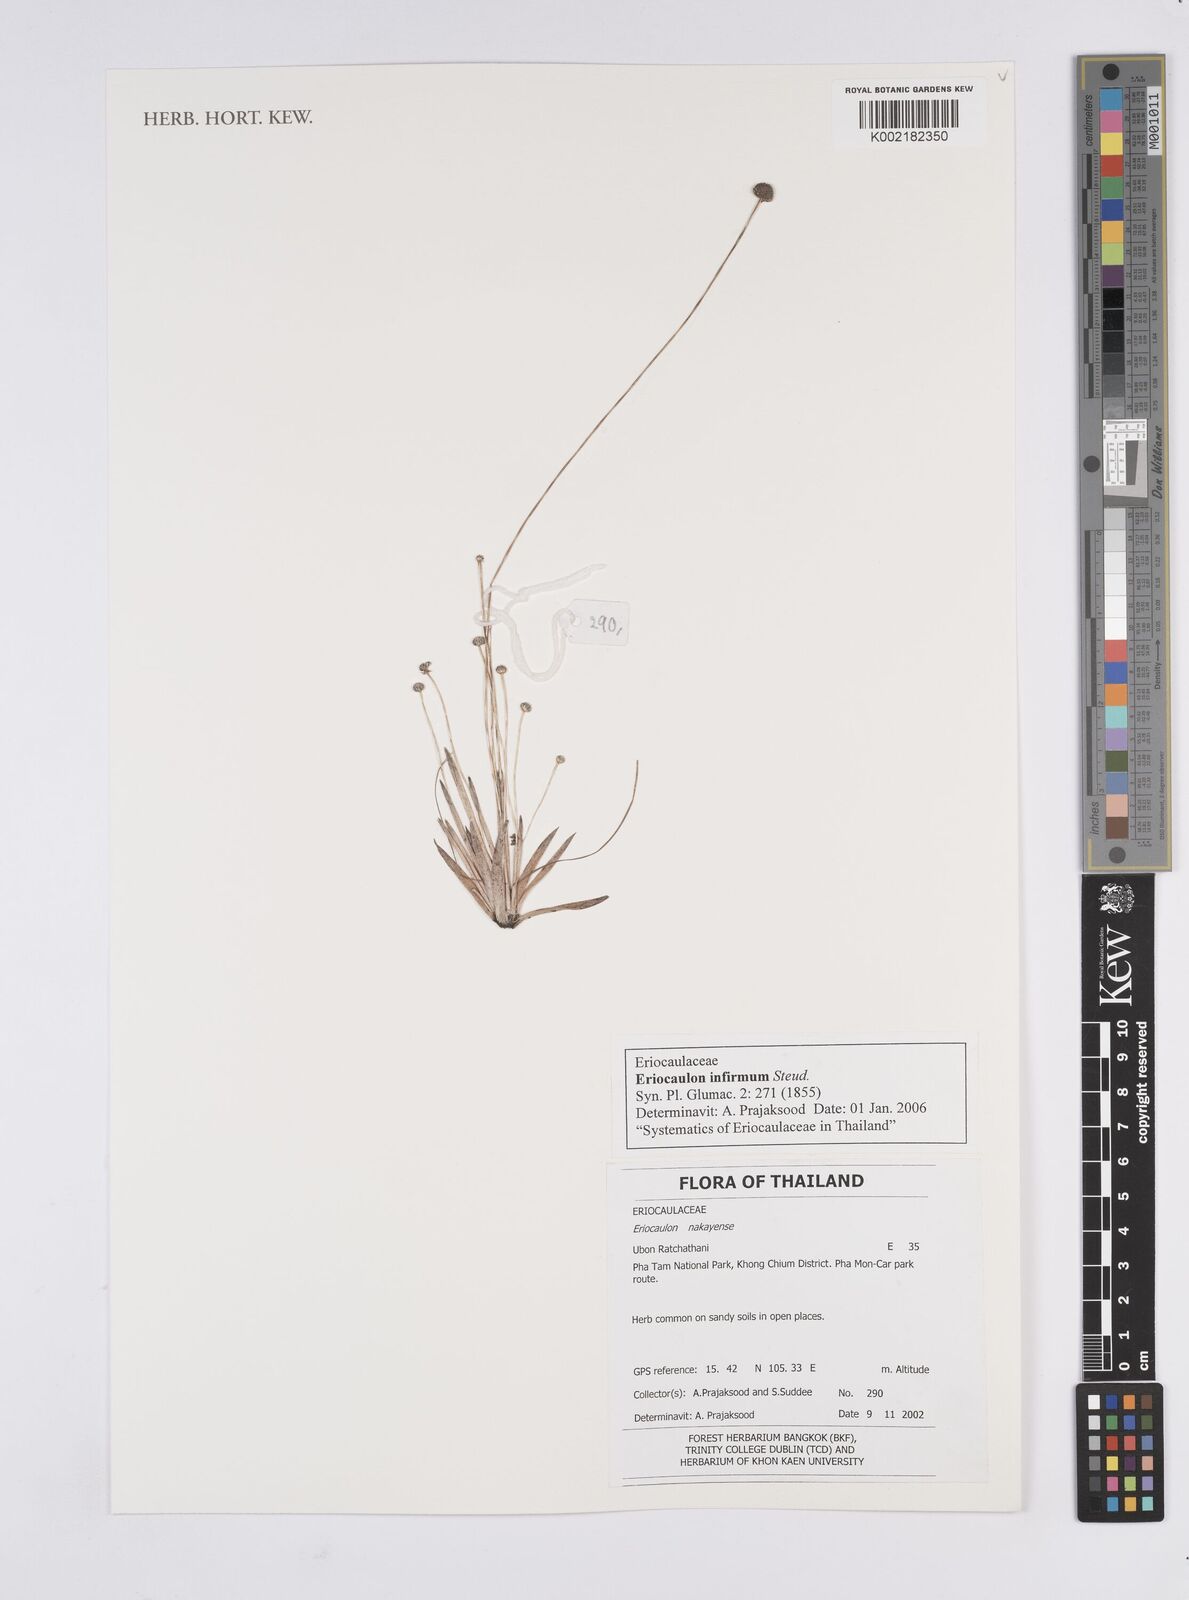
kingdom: Plantae
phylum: Tracheophyta
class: Liliopsida
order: Poales
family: Eriocaulaceae
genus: Eriocaulon
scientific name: Eriocaulon infirmum
